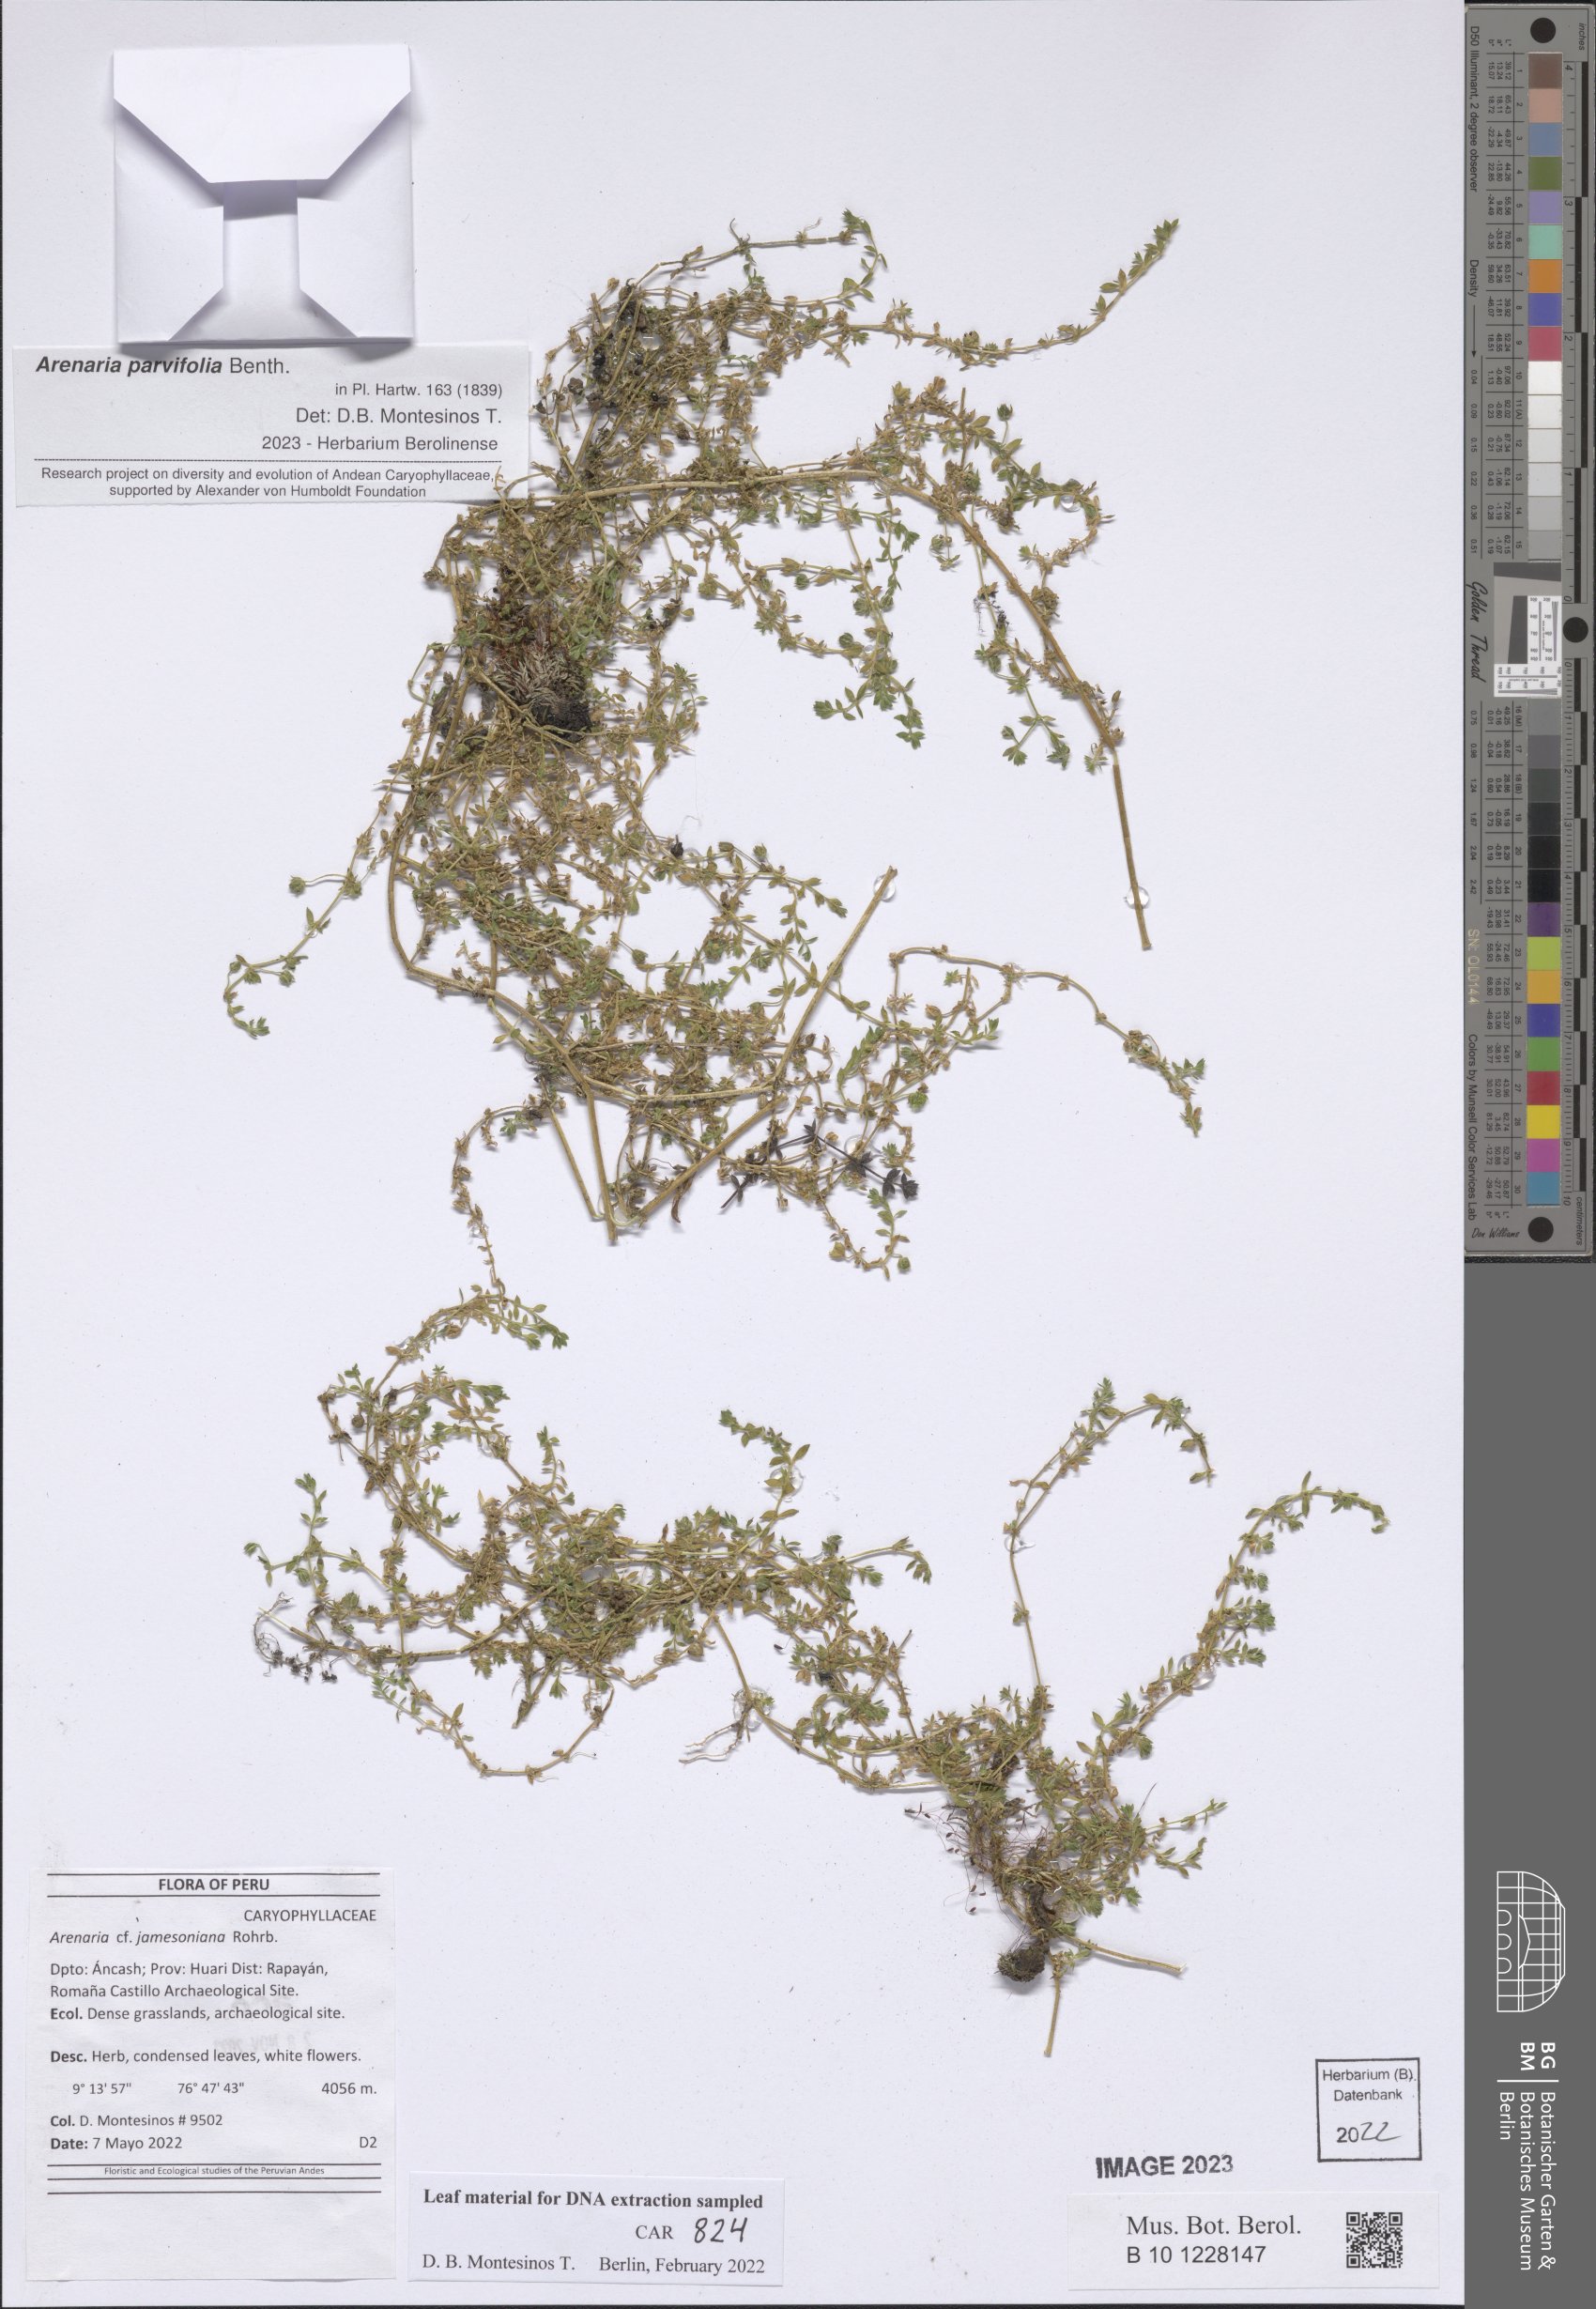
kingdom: Plantae
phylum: Tracheophyta
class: Magnoliopsida
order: Caryophyllales
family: Caryophyllaceae
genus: Arenaria
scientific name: Arenaria jamesoniana
